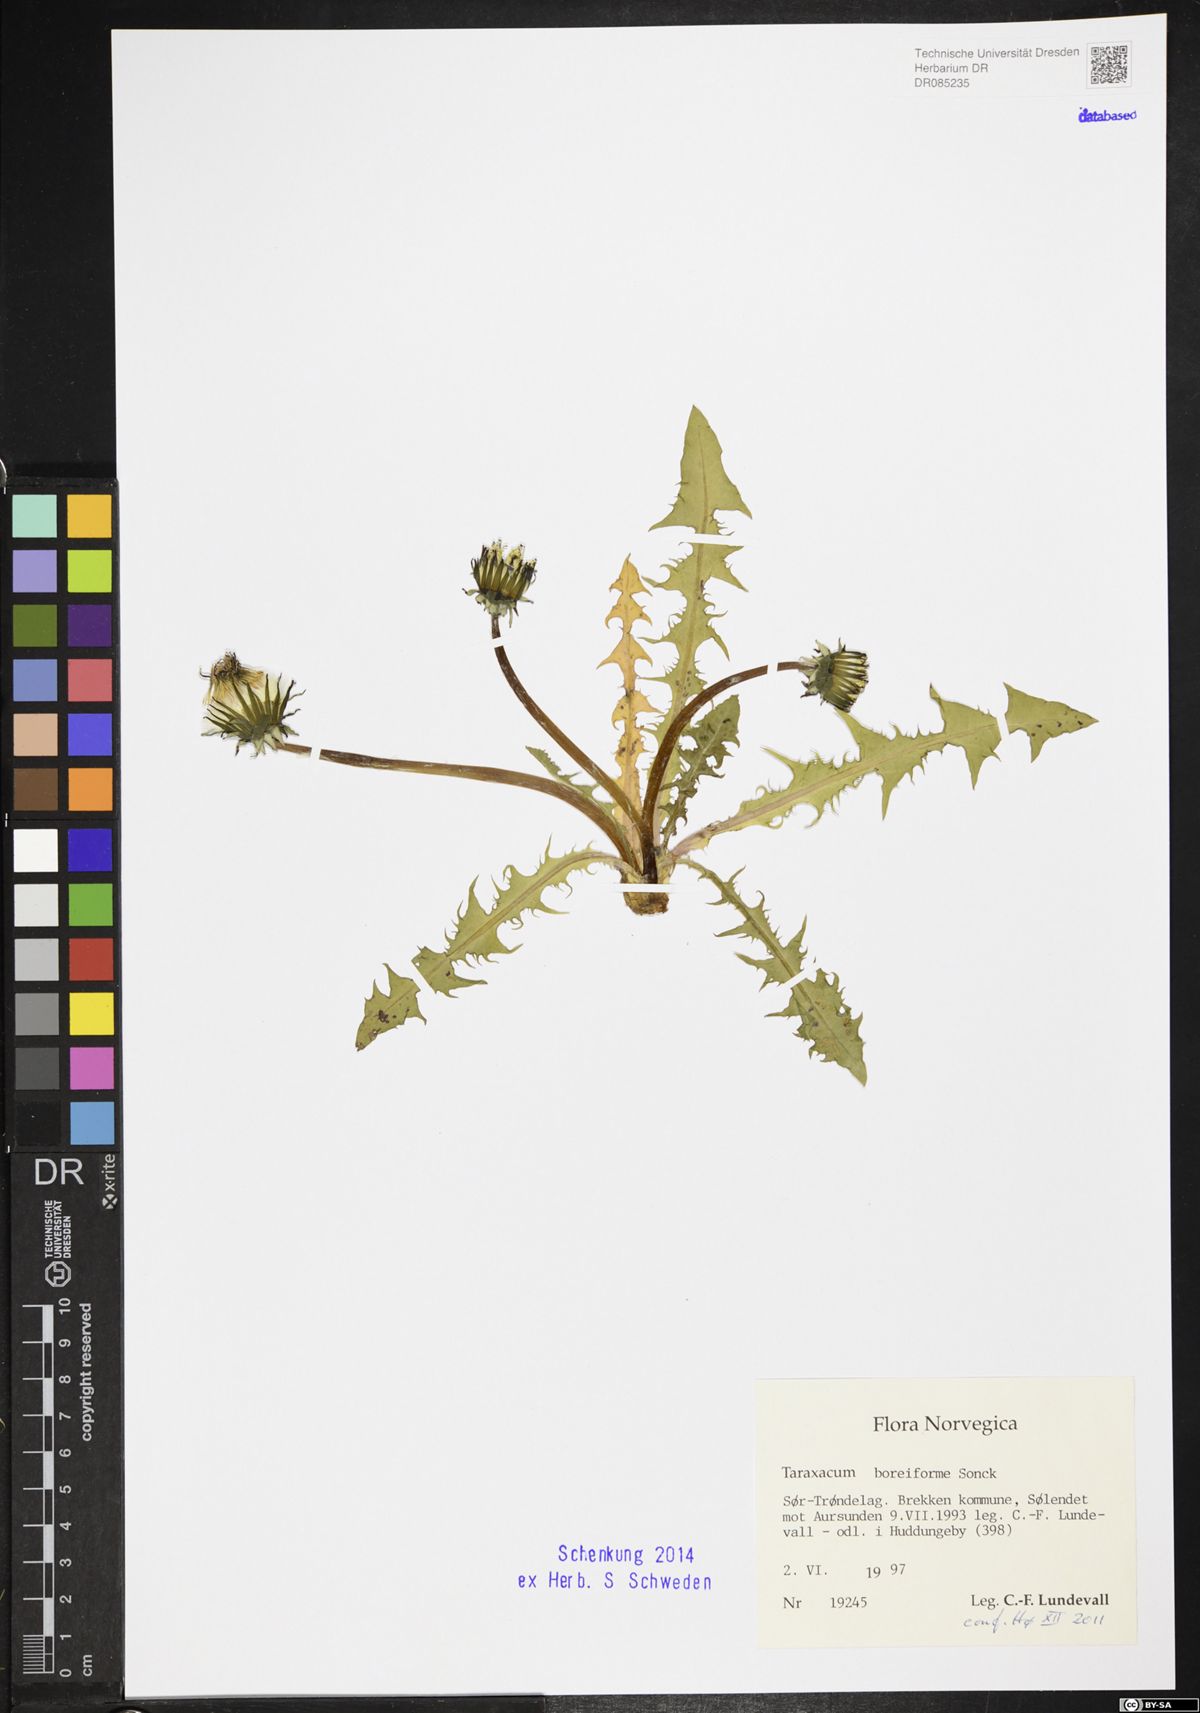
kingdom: Plantae
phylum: Tracheophyta
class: Magnoliopsida
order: Asterales
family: Asteraceae
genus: Taraxacum
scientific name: Taraxacum boreiforme
